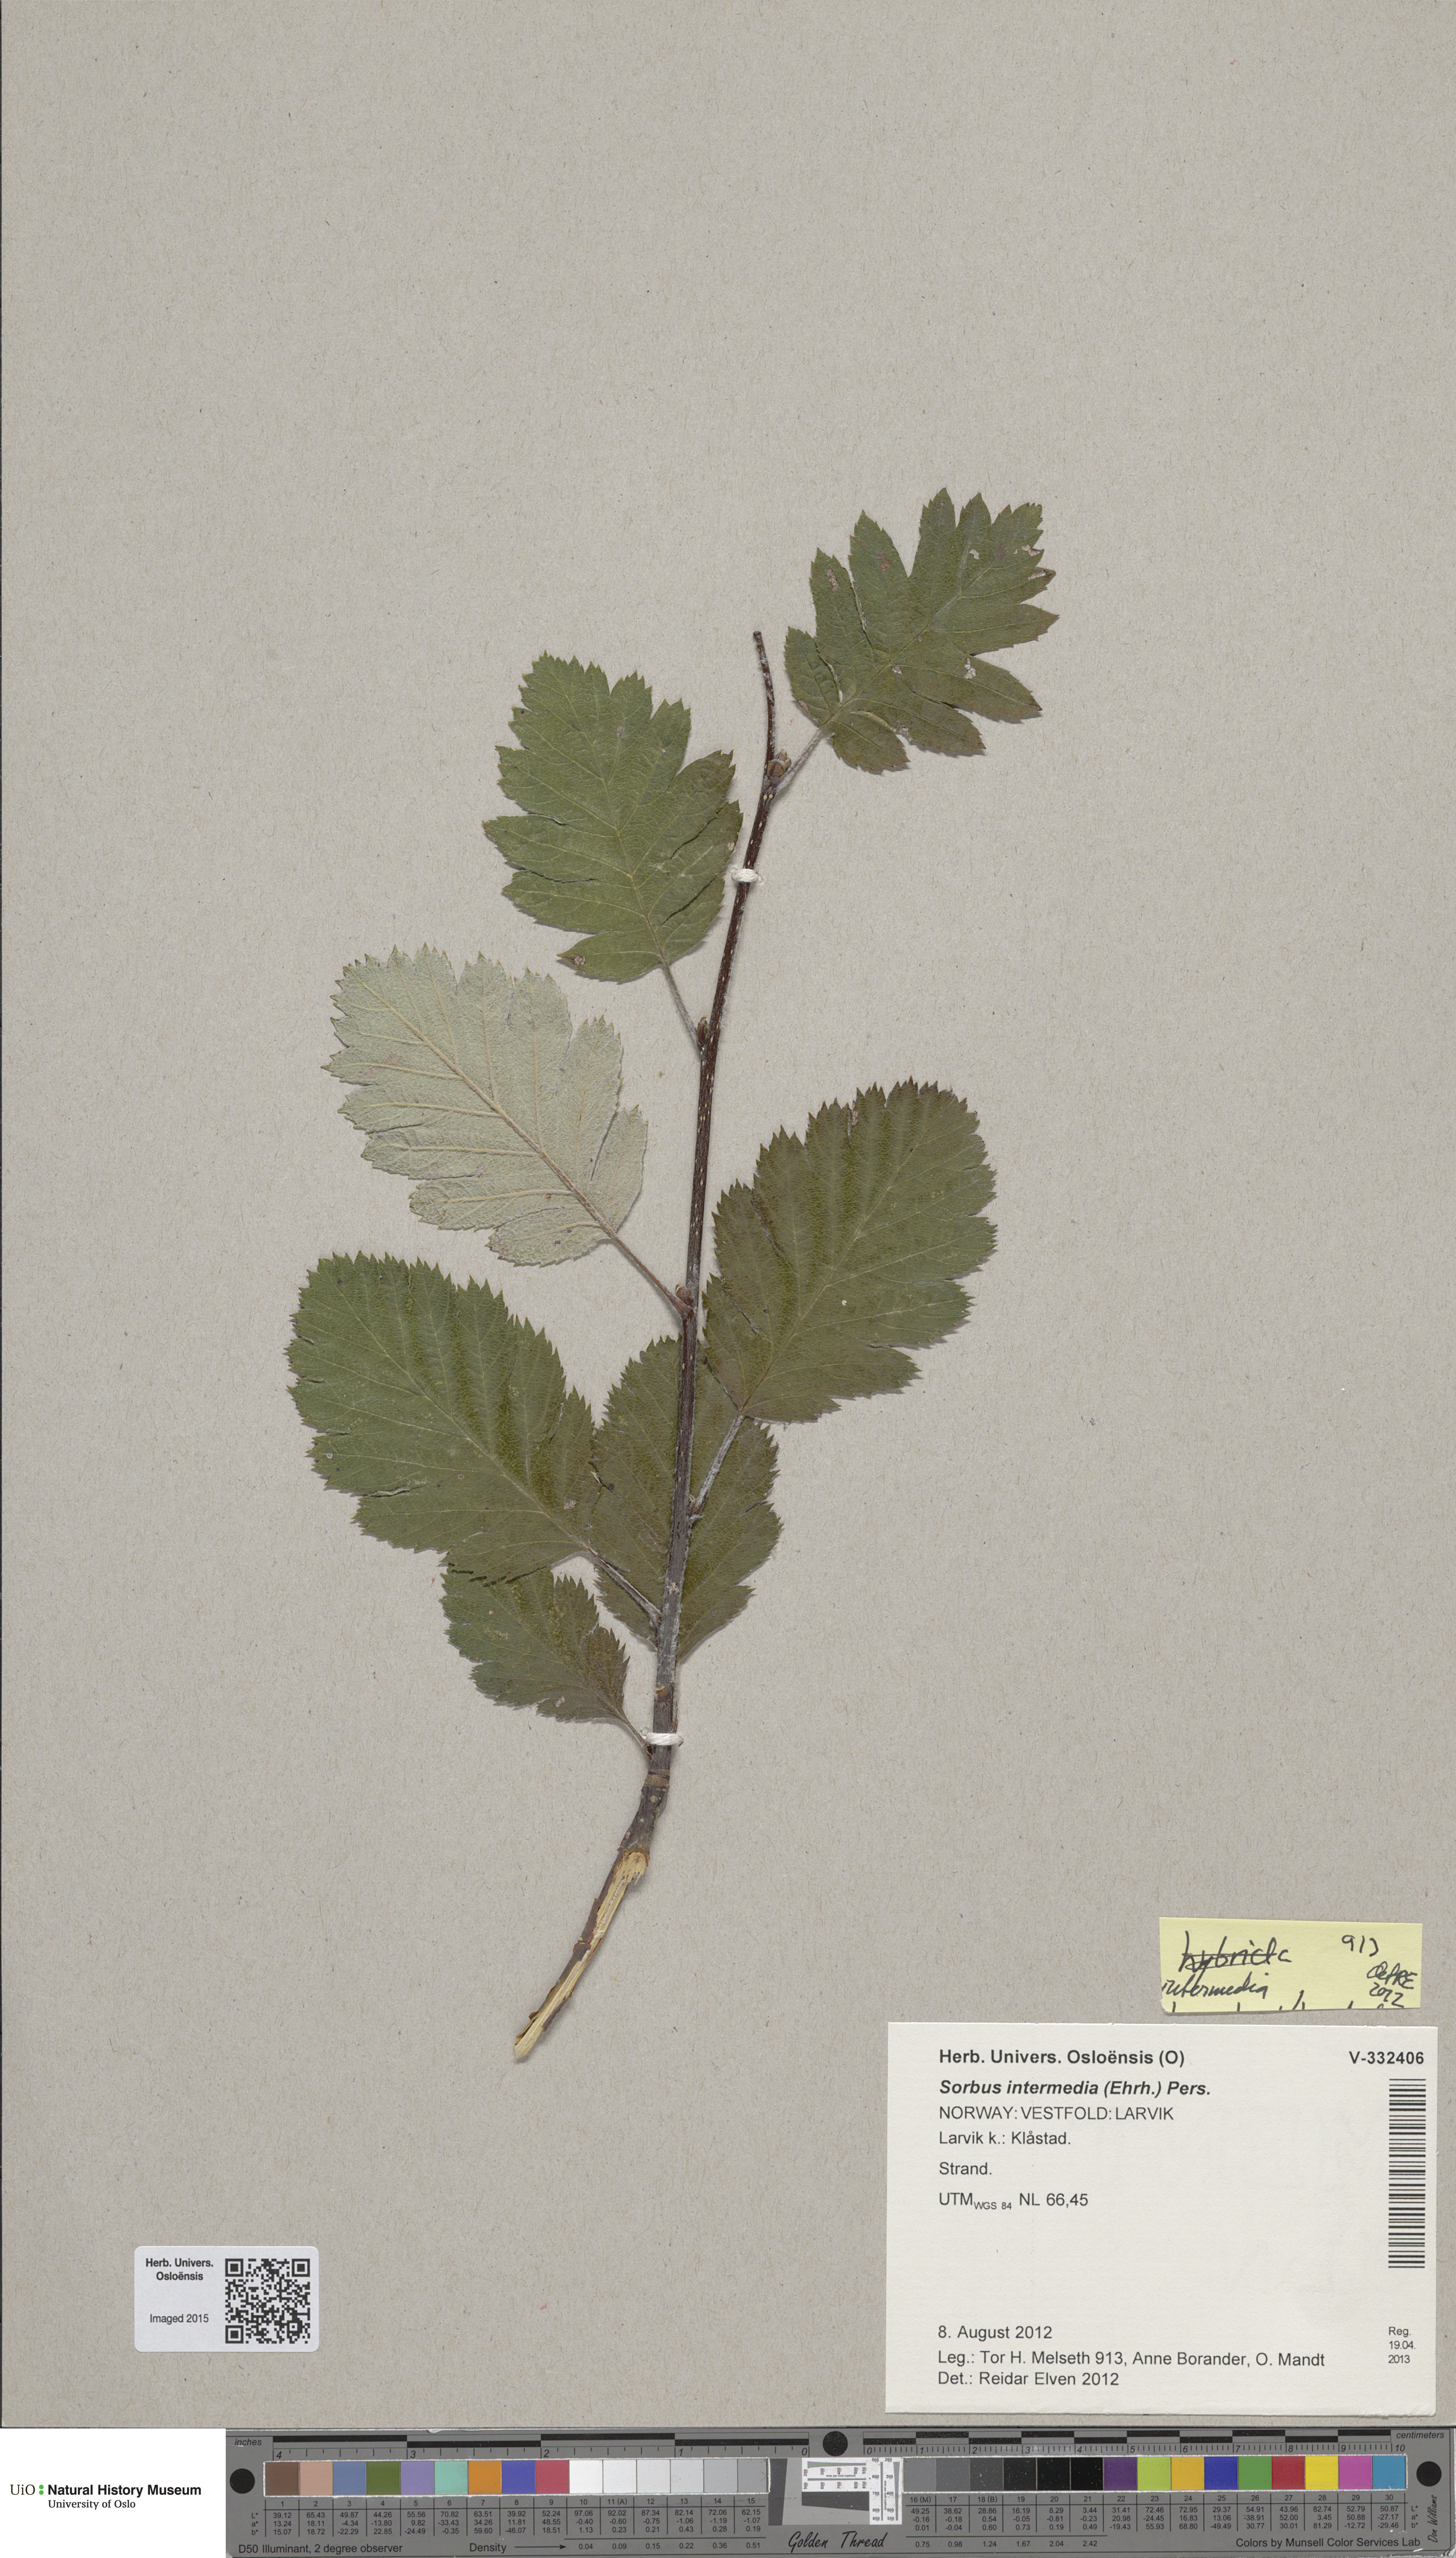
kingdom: Plantae
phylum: Tracheophyta
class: Magnoliopsida
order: Rosales
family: Rosaceae
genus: Scandosorbus
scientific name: Scandosorbus intermedia
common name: Swedish whitebeam
